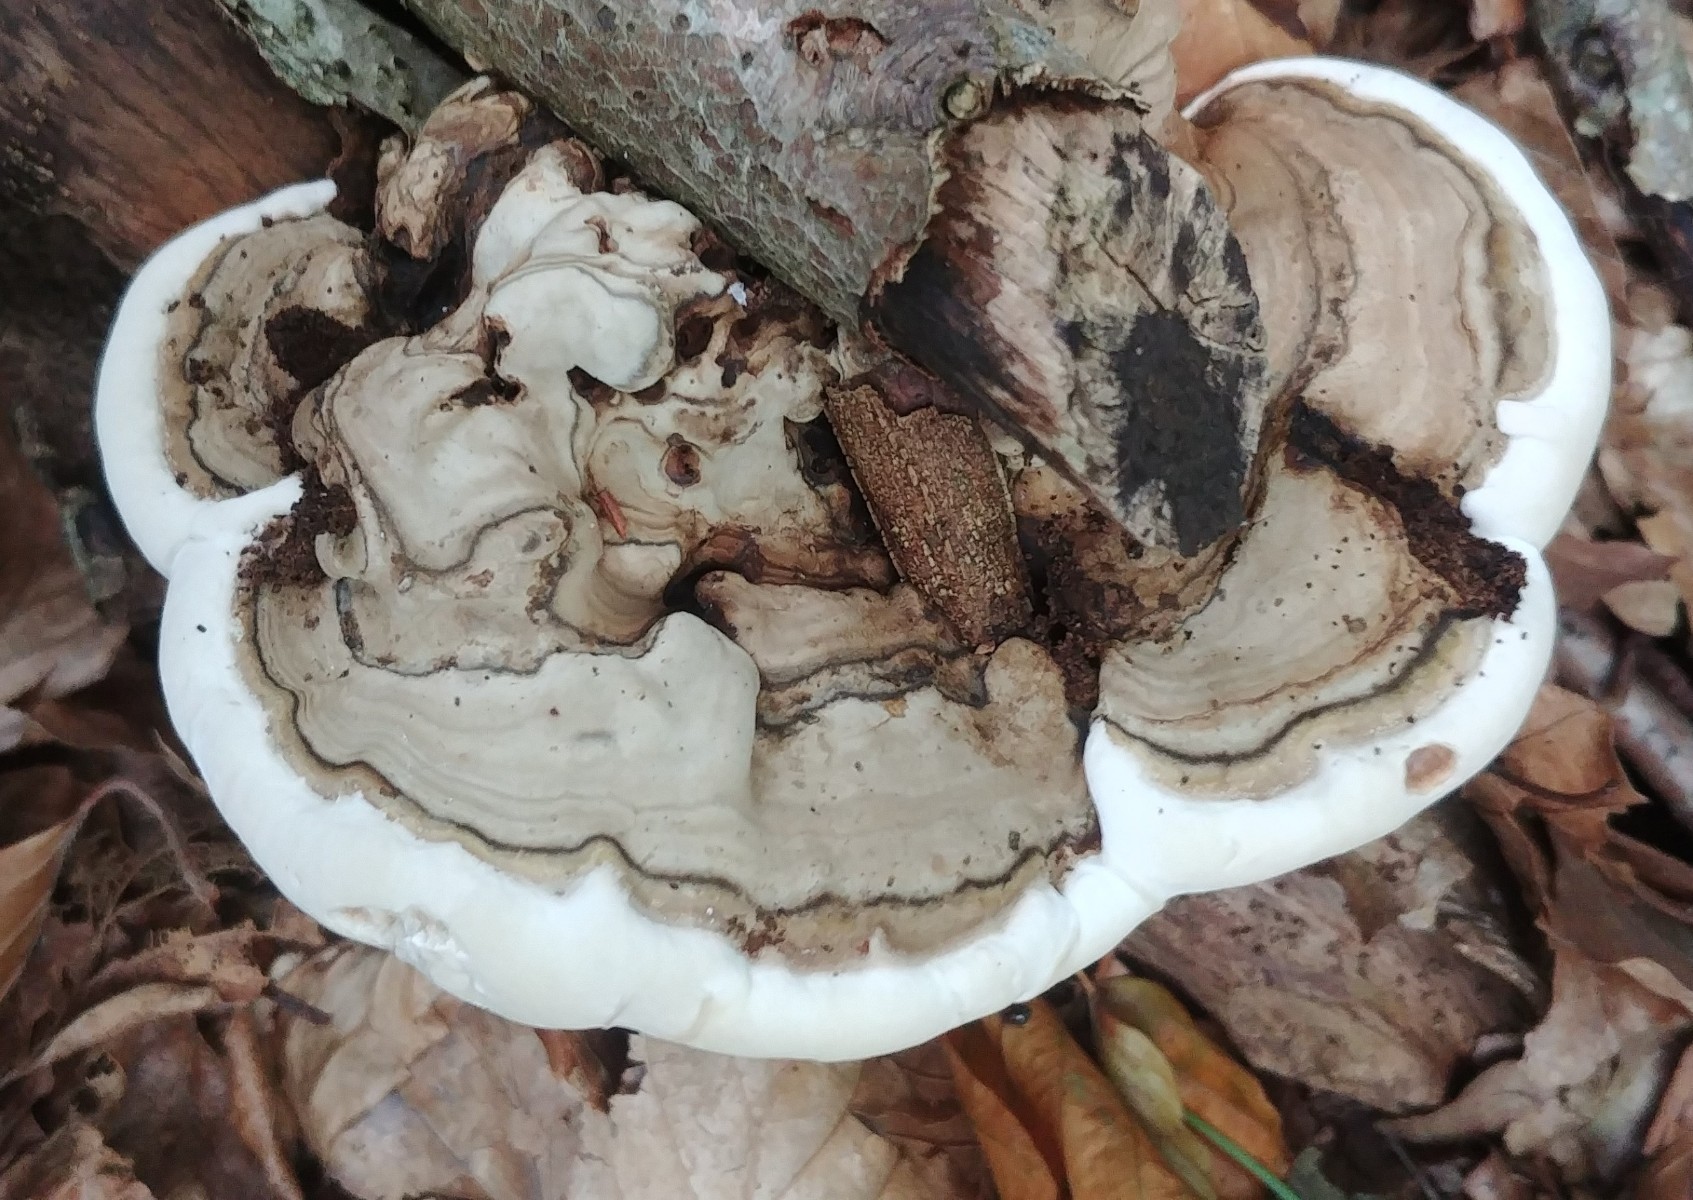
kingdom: Fungi
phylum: Basidiomycota
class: Agaricomycetes
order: Polyporales
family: Polyporaceae
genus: Ganoderma
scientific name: Ganoderma applanatum
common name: flad lakporesvamp
